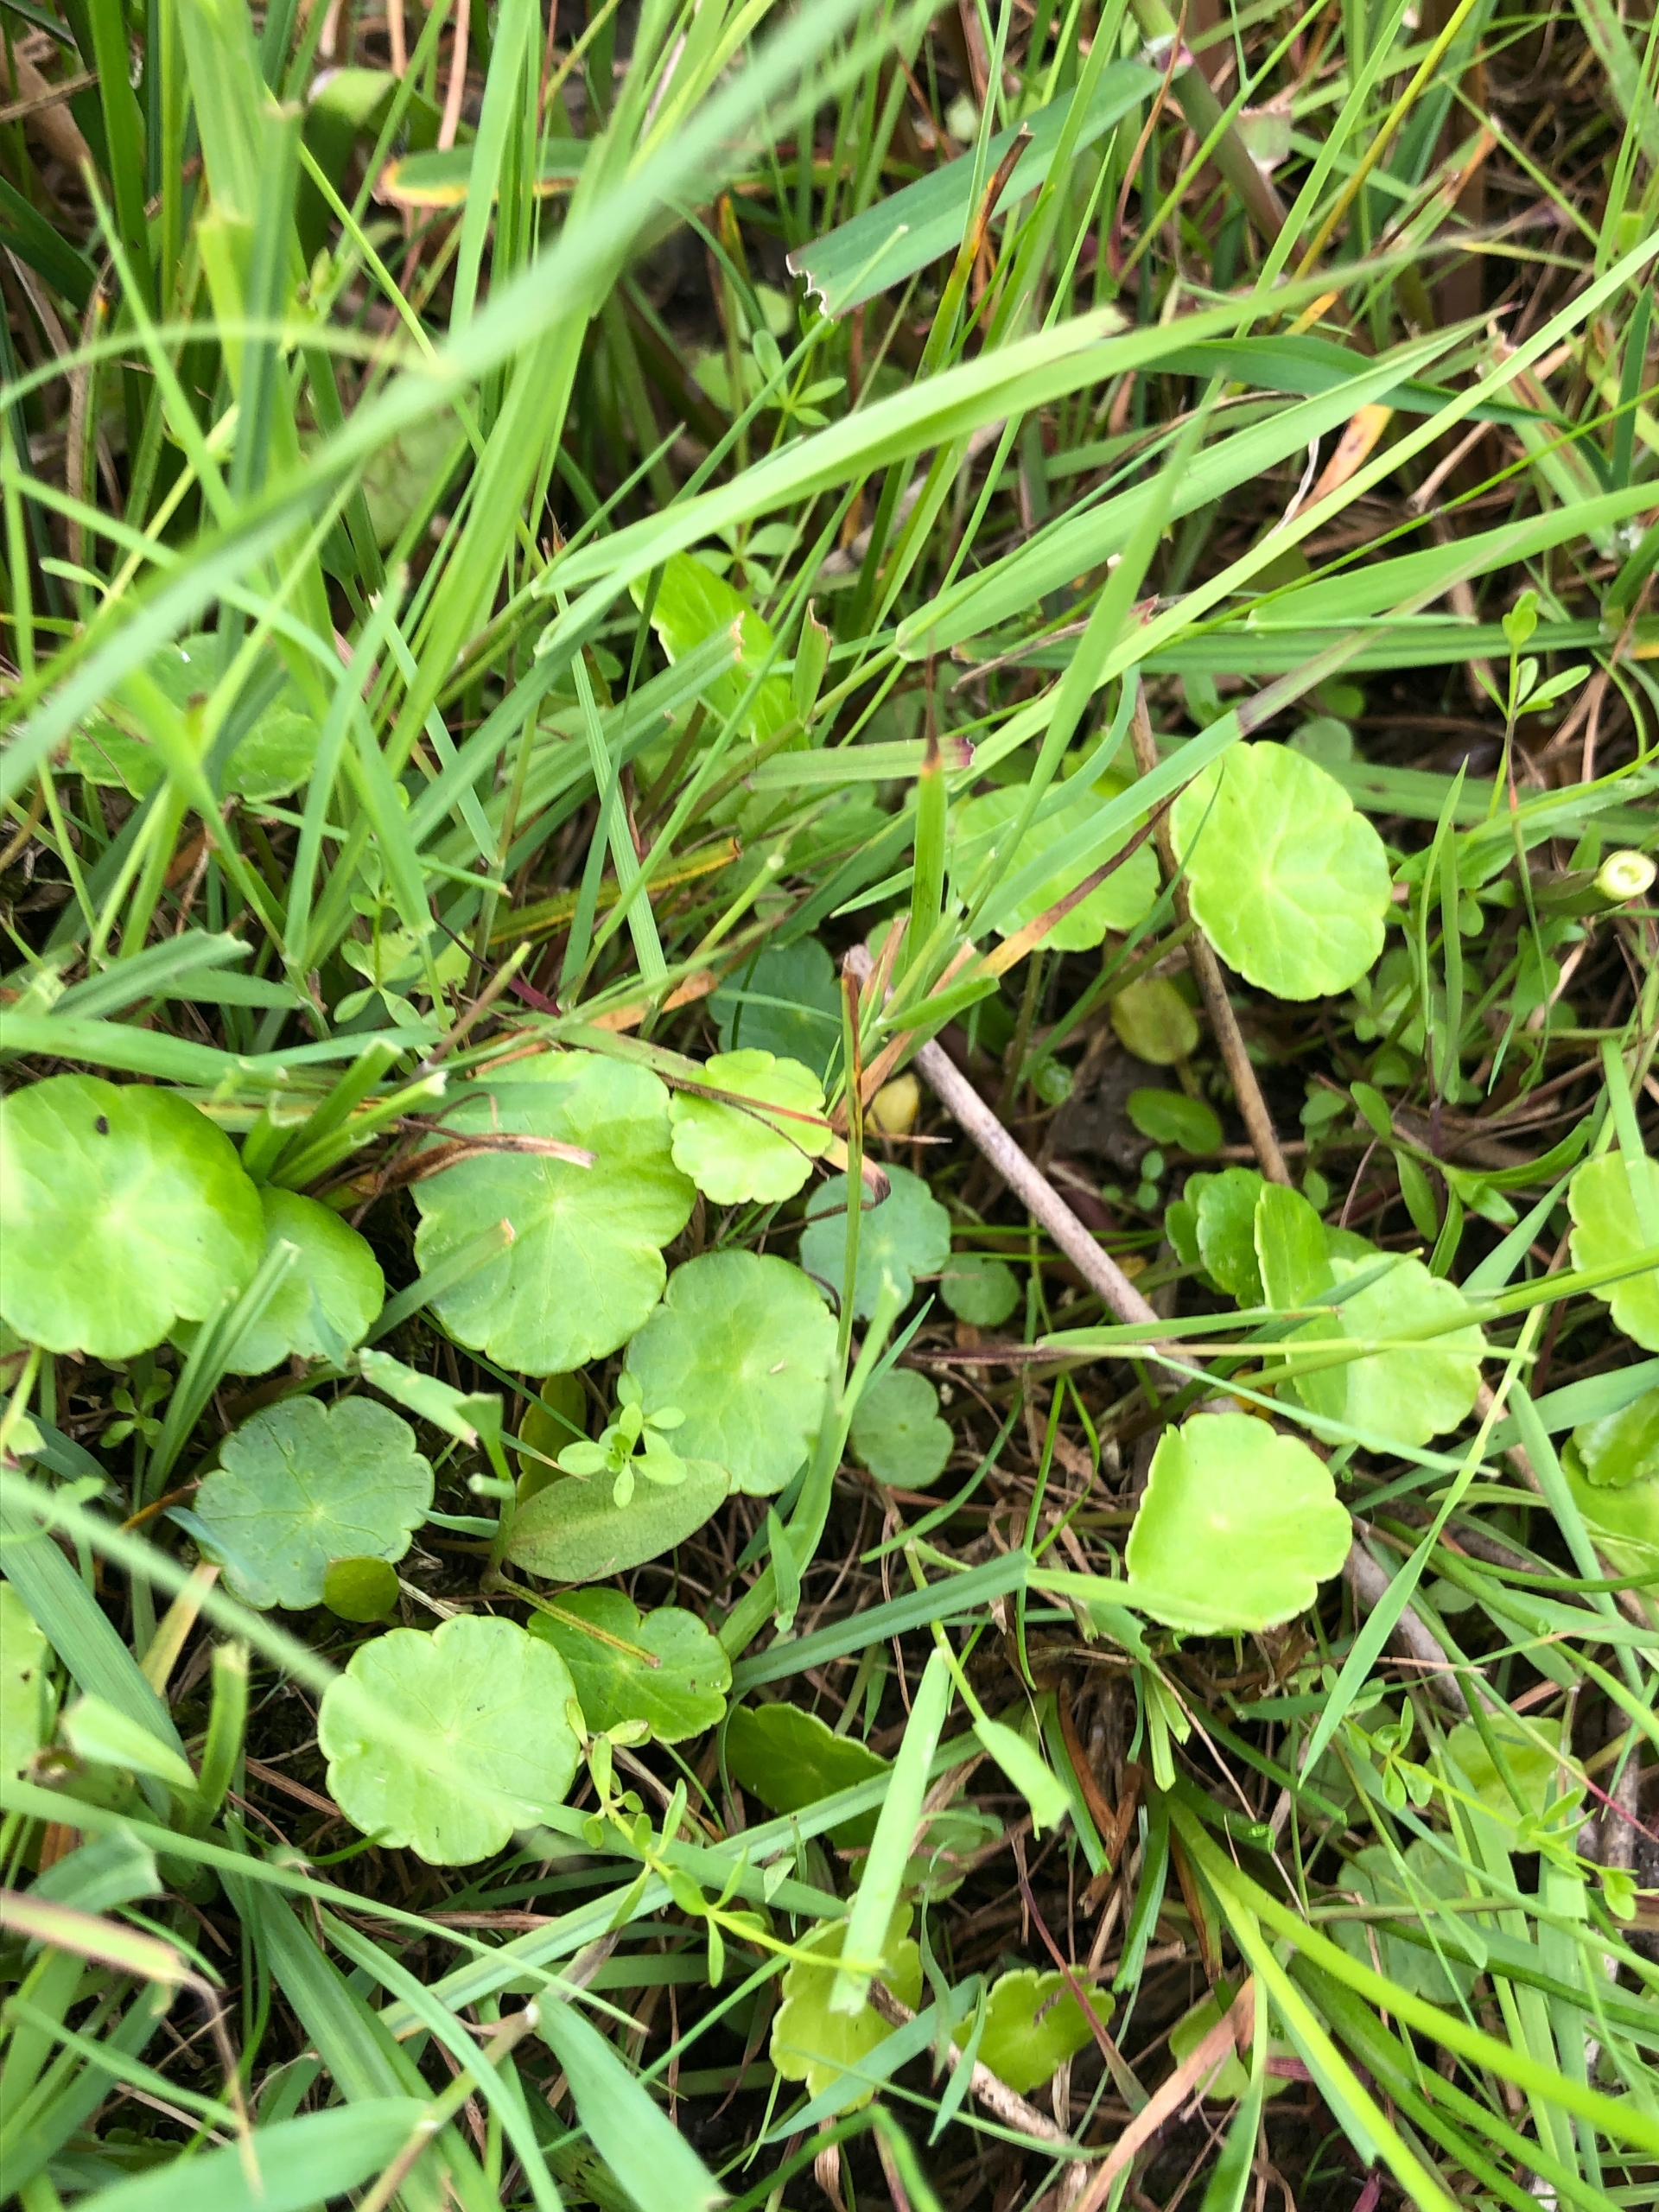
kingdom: Plantae
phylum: Tracheophyta
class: Magnoliopsida
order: Apiales
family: Araliaceae
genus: Hydrocotyle
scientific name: Hydrocotyle vulgaris
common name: Vandnavle
